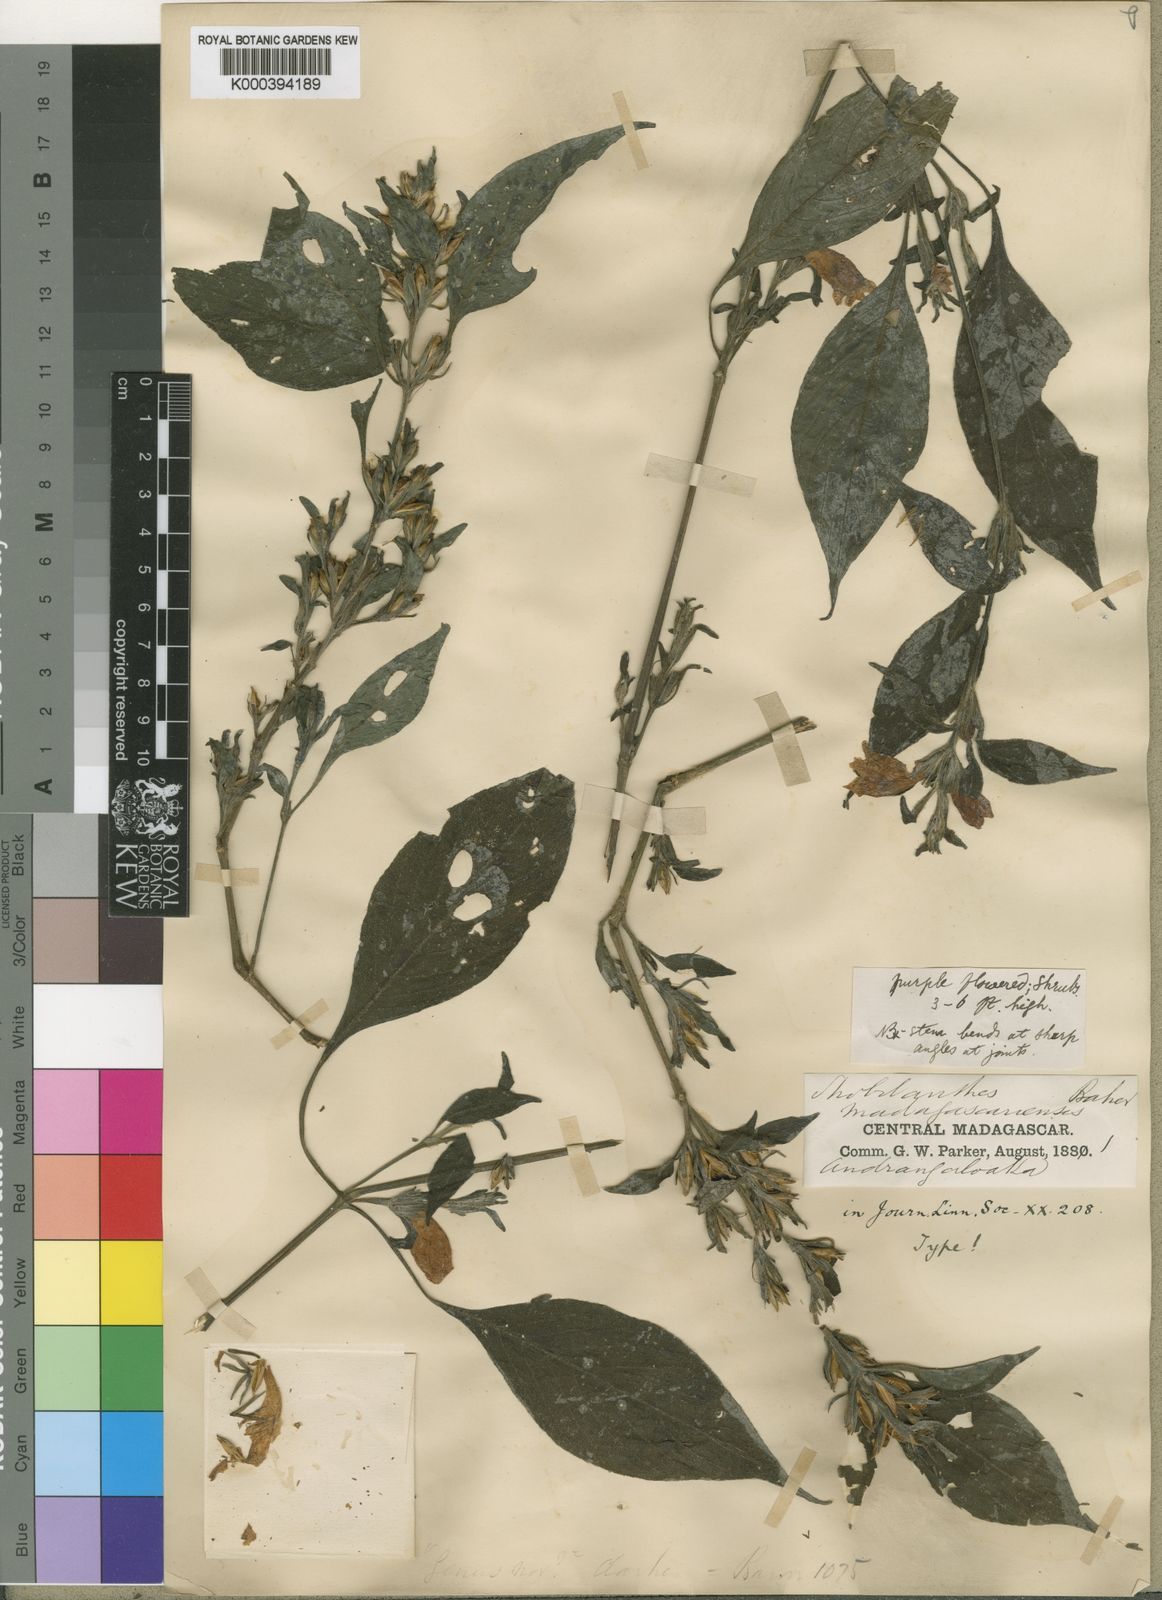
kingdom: Plantae
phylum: Tracheophyta
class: Magnoliopsida
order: Lamiales
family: Acanthaceae
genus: Acanthopale
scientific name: Acanthopale madagascariensis
